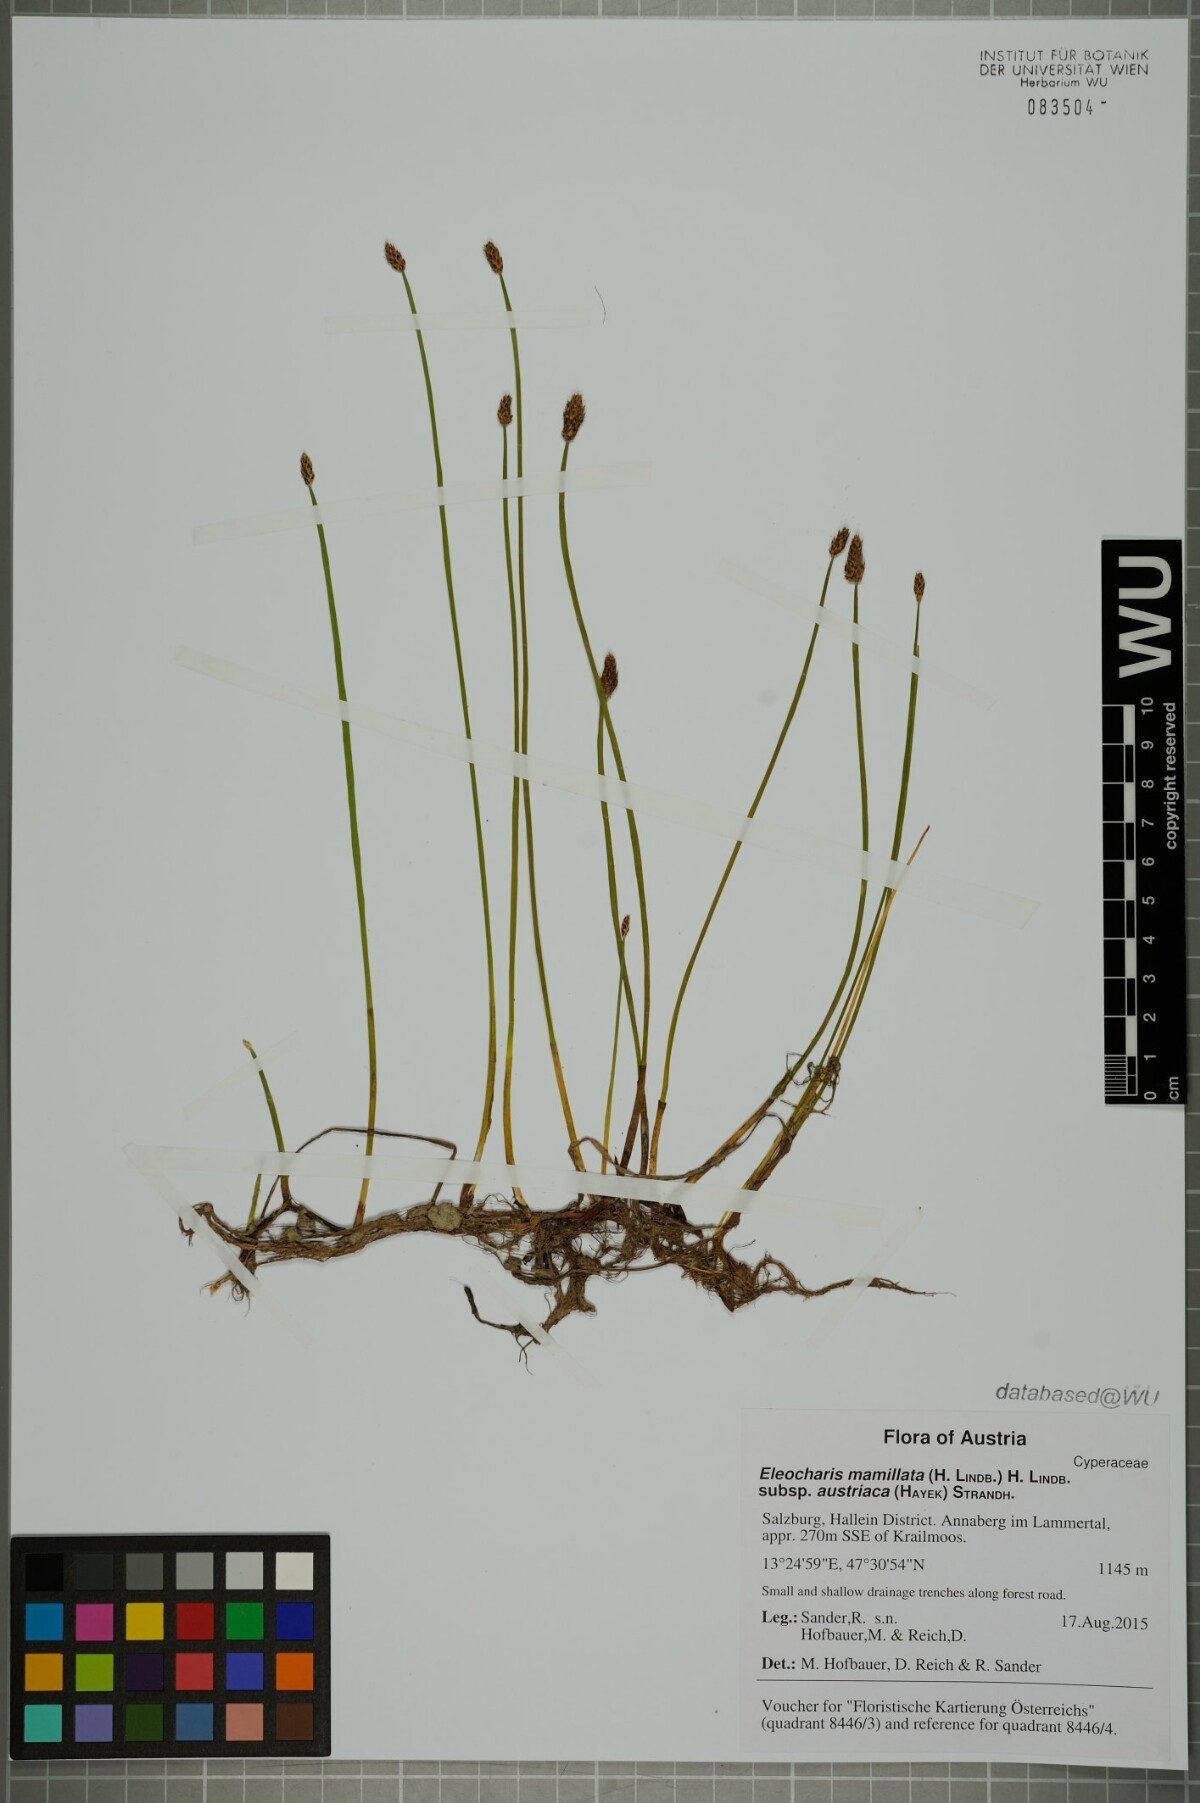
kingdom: Plantae
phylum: Tracheophyta
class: Liliopsida
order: Poales
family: Cyperaceae
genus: Eleocharis
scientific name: Eleocharis mamillata
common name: Northern spike-rush
